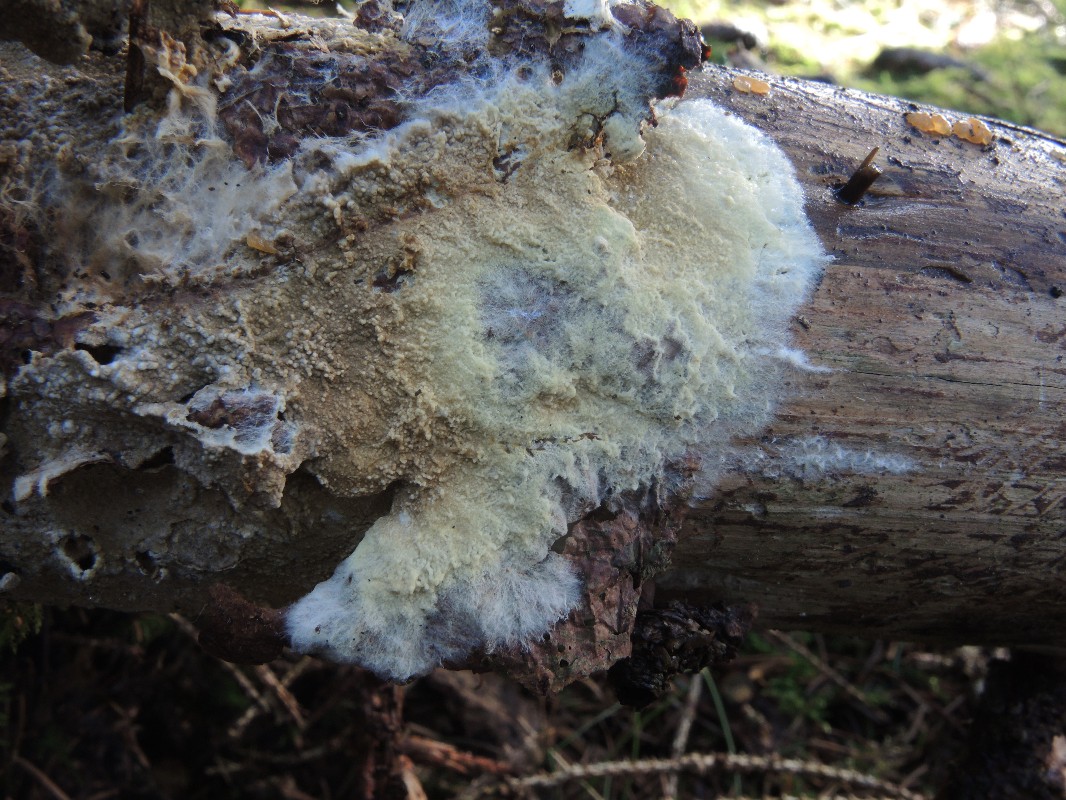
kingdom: Fungi
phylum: Basidiomycota
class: Agaricomycetes
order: Boletales
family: Coniophoraceae
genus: Coniophora
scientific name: Coniophora arida
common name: tynd tømmersvamp
